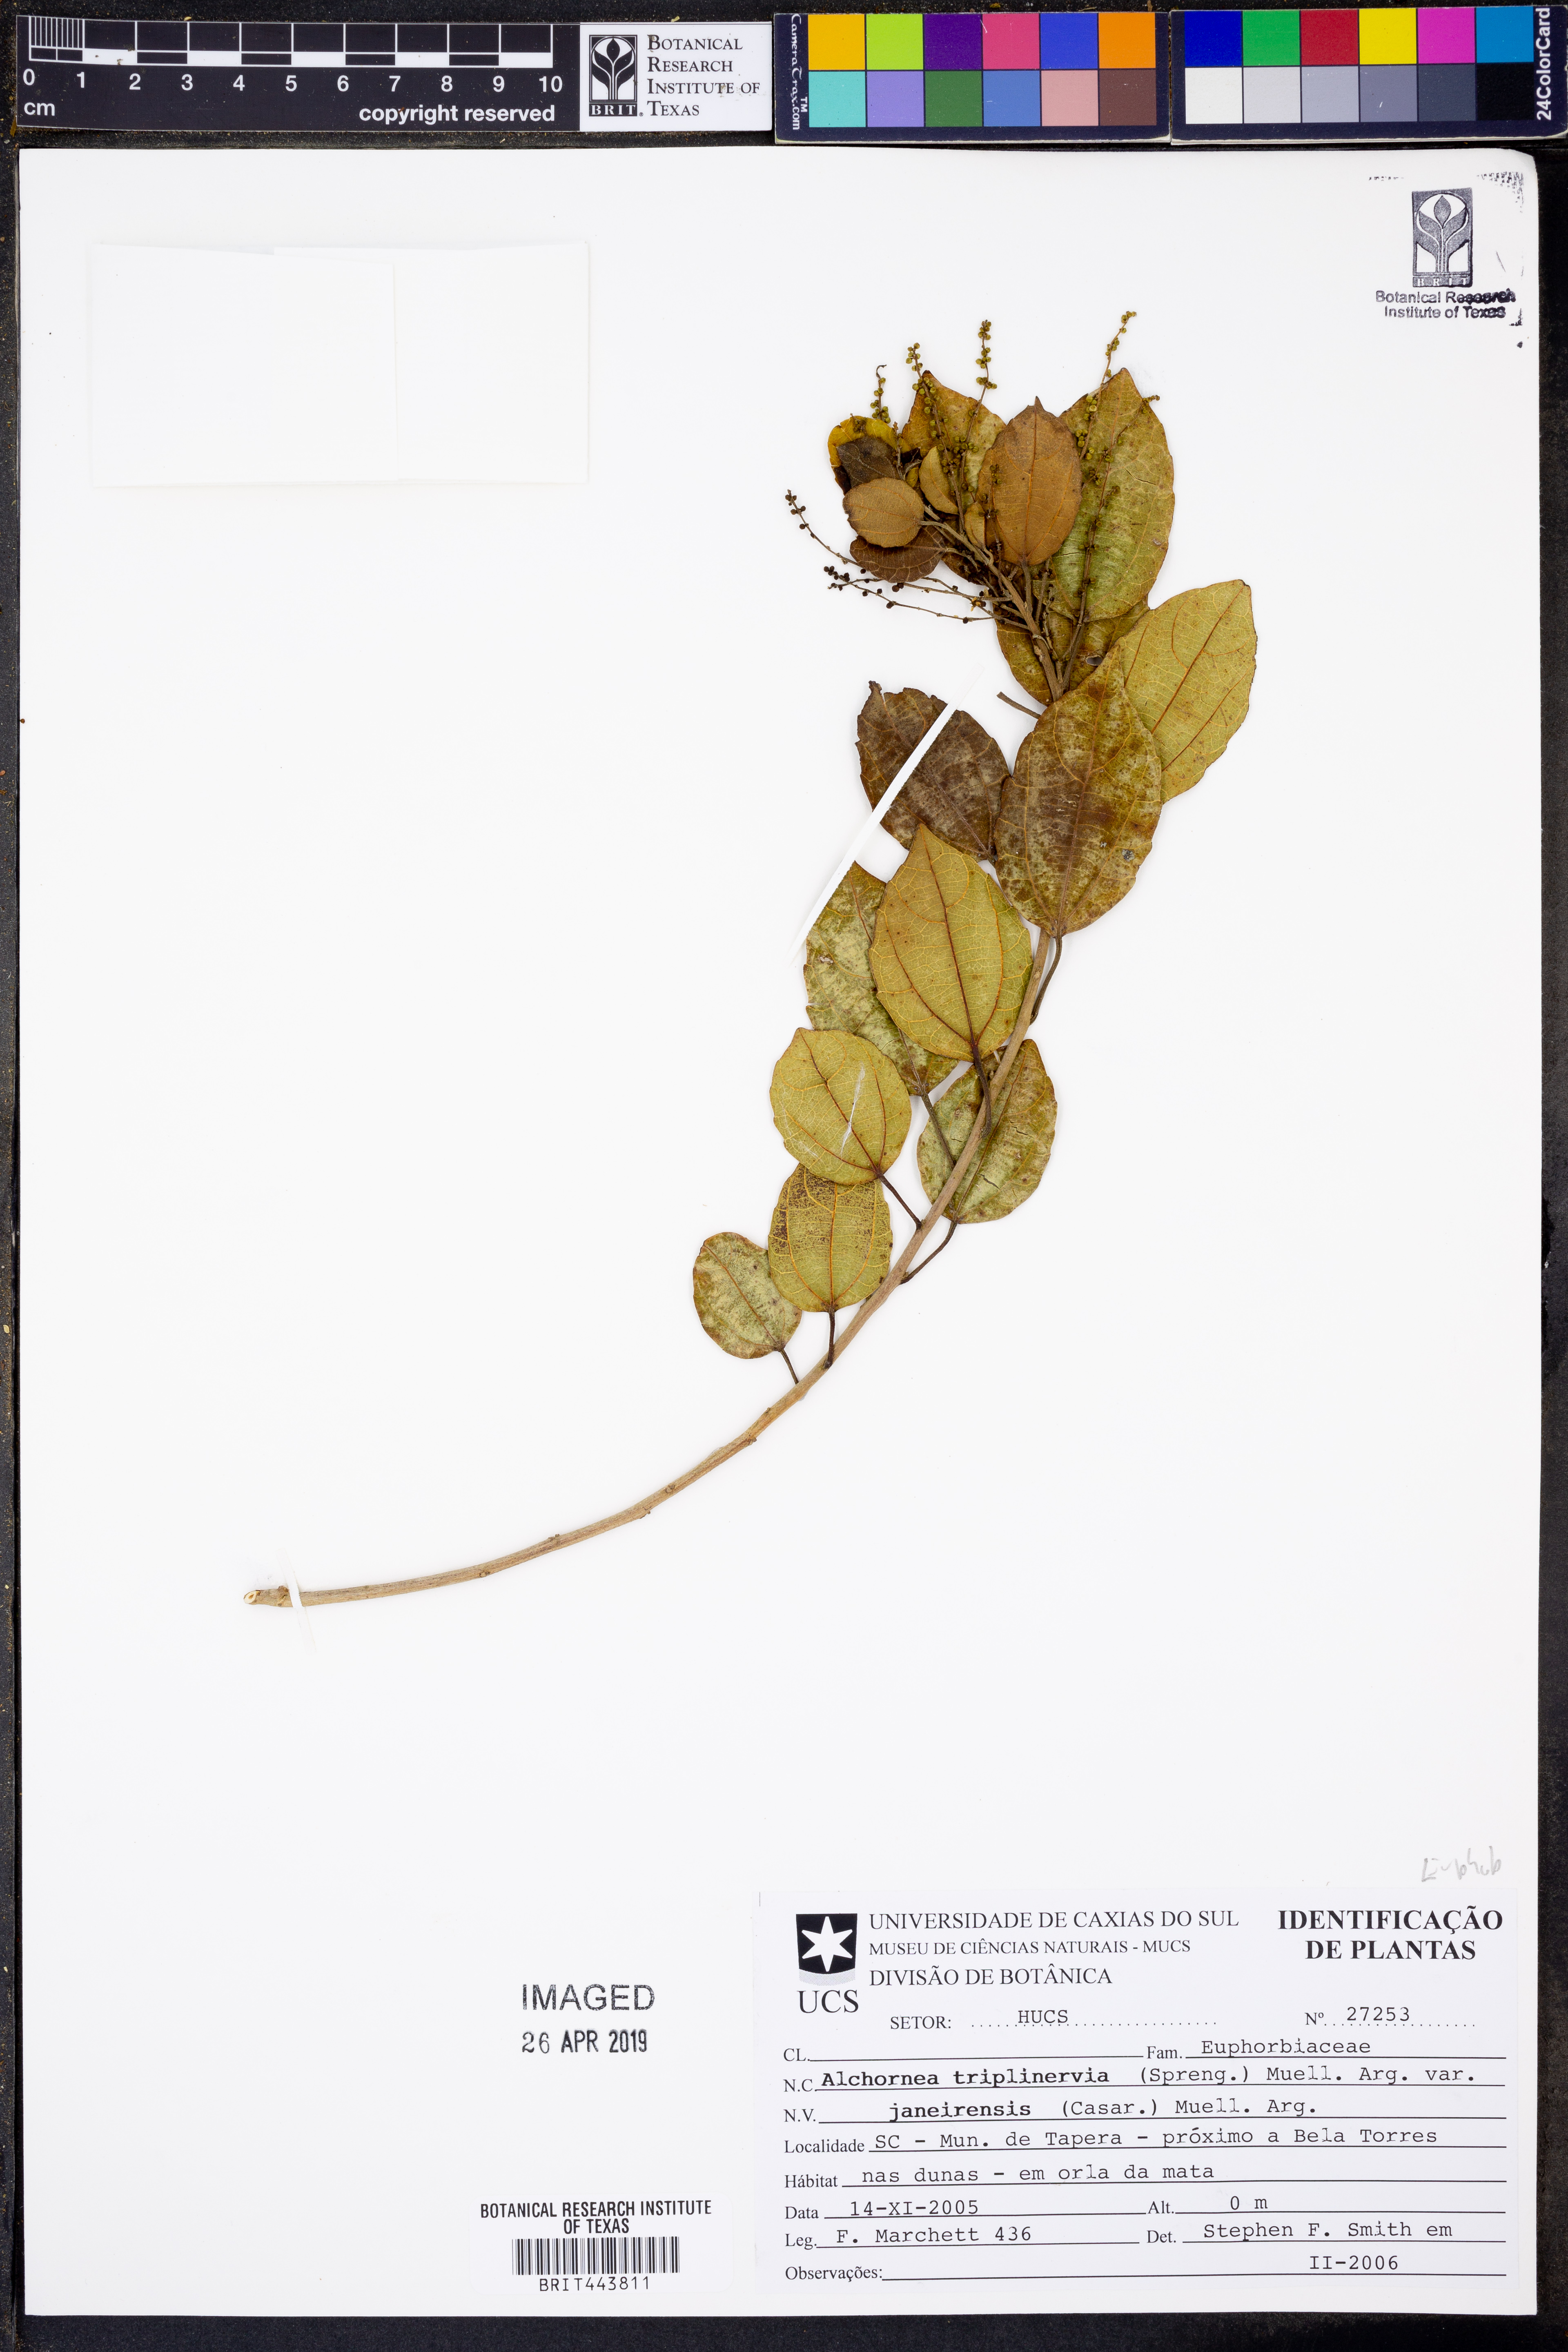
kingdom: Plantae
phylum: Tracheophyta
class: Magnoliopsida
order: Malpighiales
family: Euphorbiaceae
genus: Alchornea
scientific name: Alchornea triplinervia
